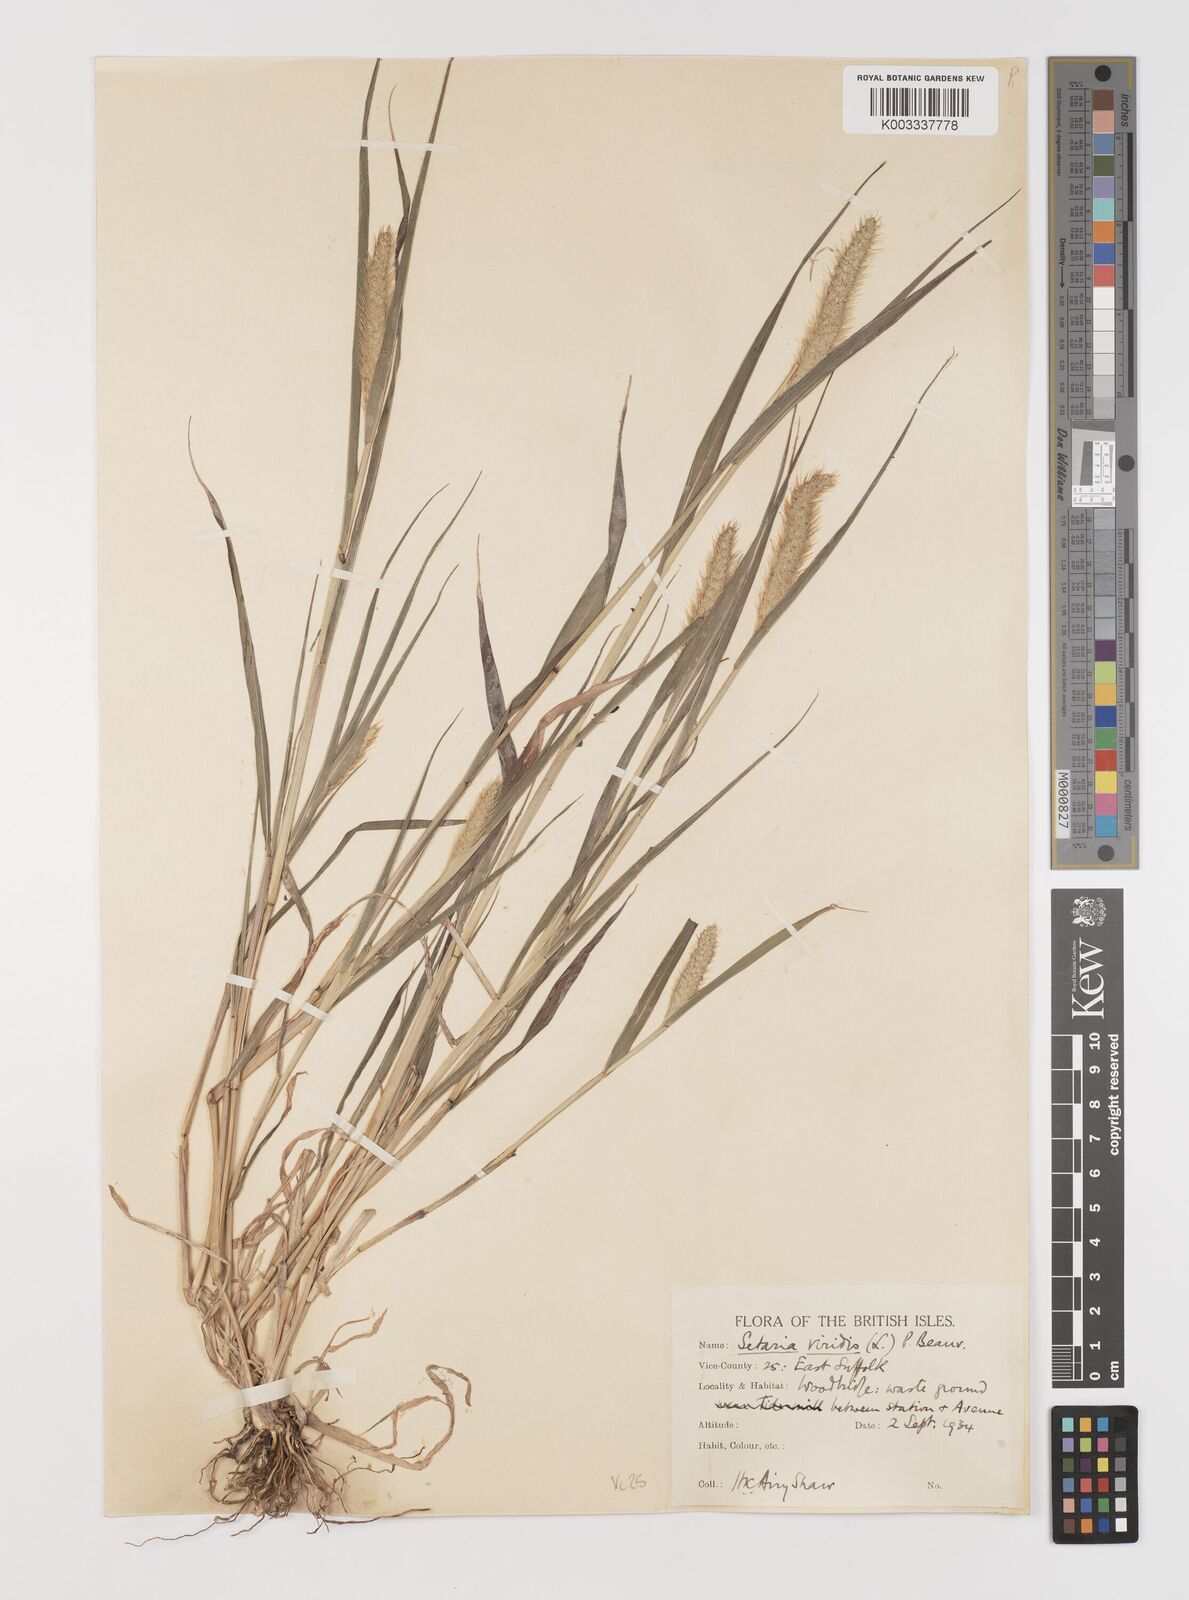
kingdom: Plantae
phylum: Tracheophyta
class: Liliopsida
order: Poales
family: Poaceae
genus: Setaria
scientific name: Setaria viridis
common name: Green bristlegrass
